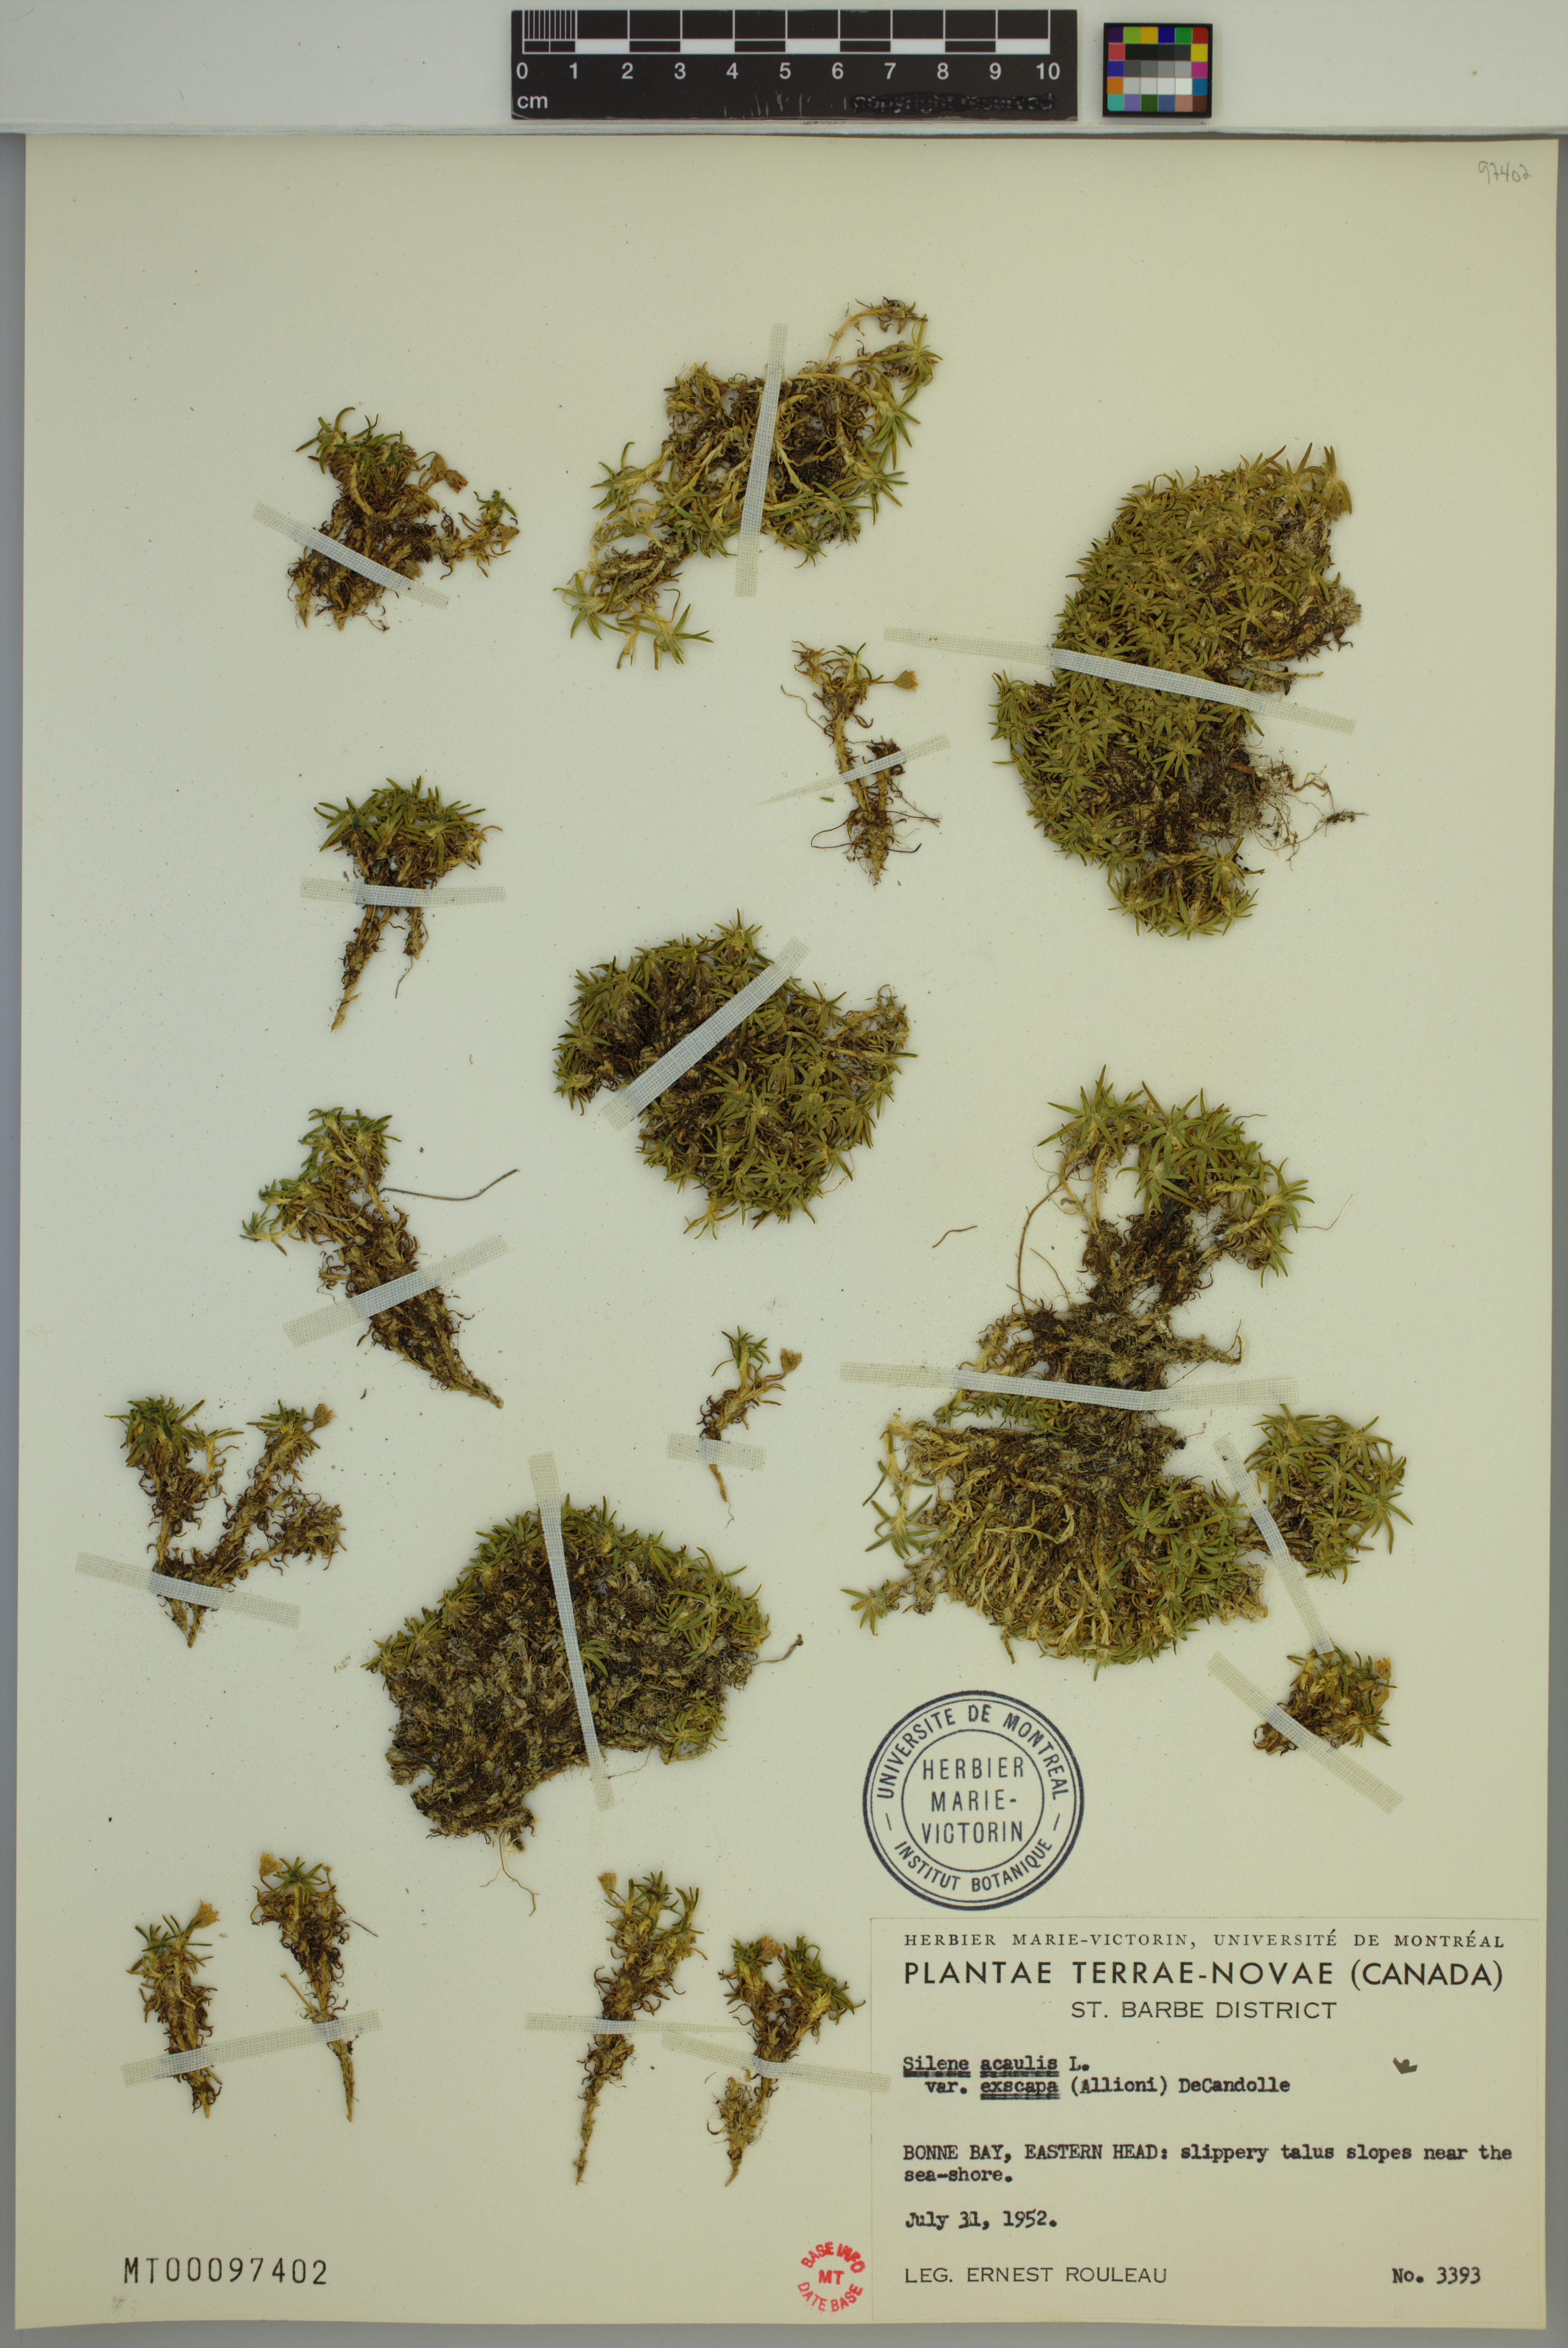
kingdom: Plantae
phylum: Tracheophyta
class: Magnoliopsida
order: Caryophyllales
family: Caryophyllaceae
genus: Silene
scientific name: Silene acaulis
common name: Moss campion
